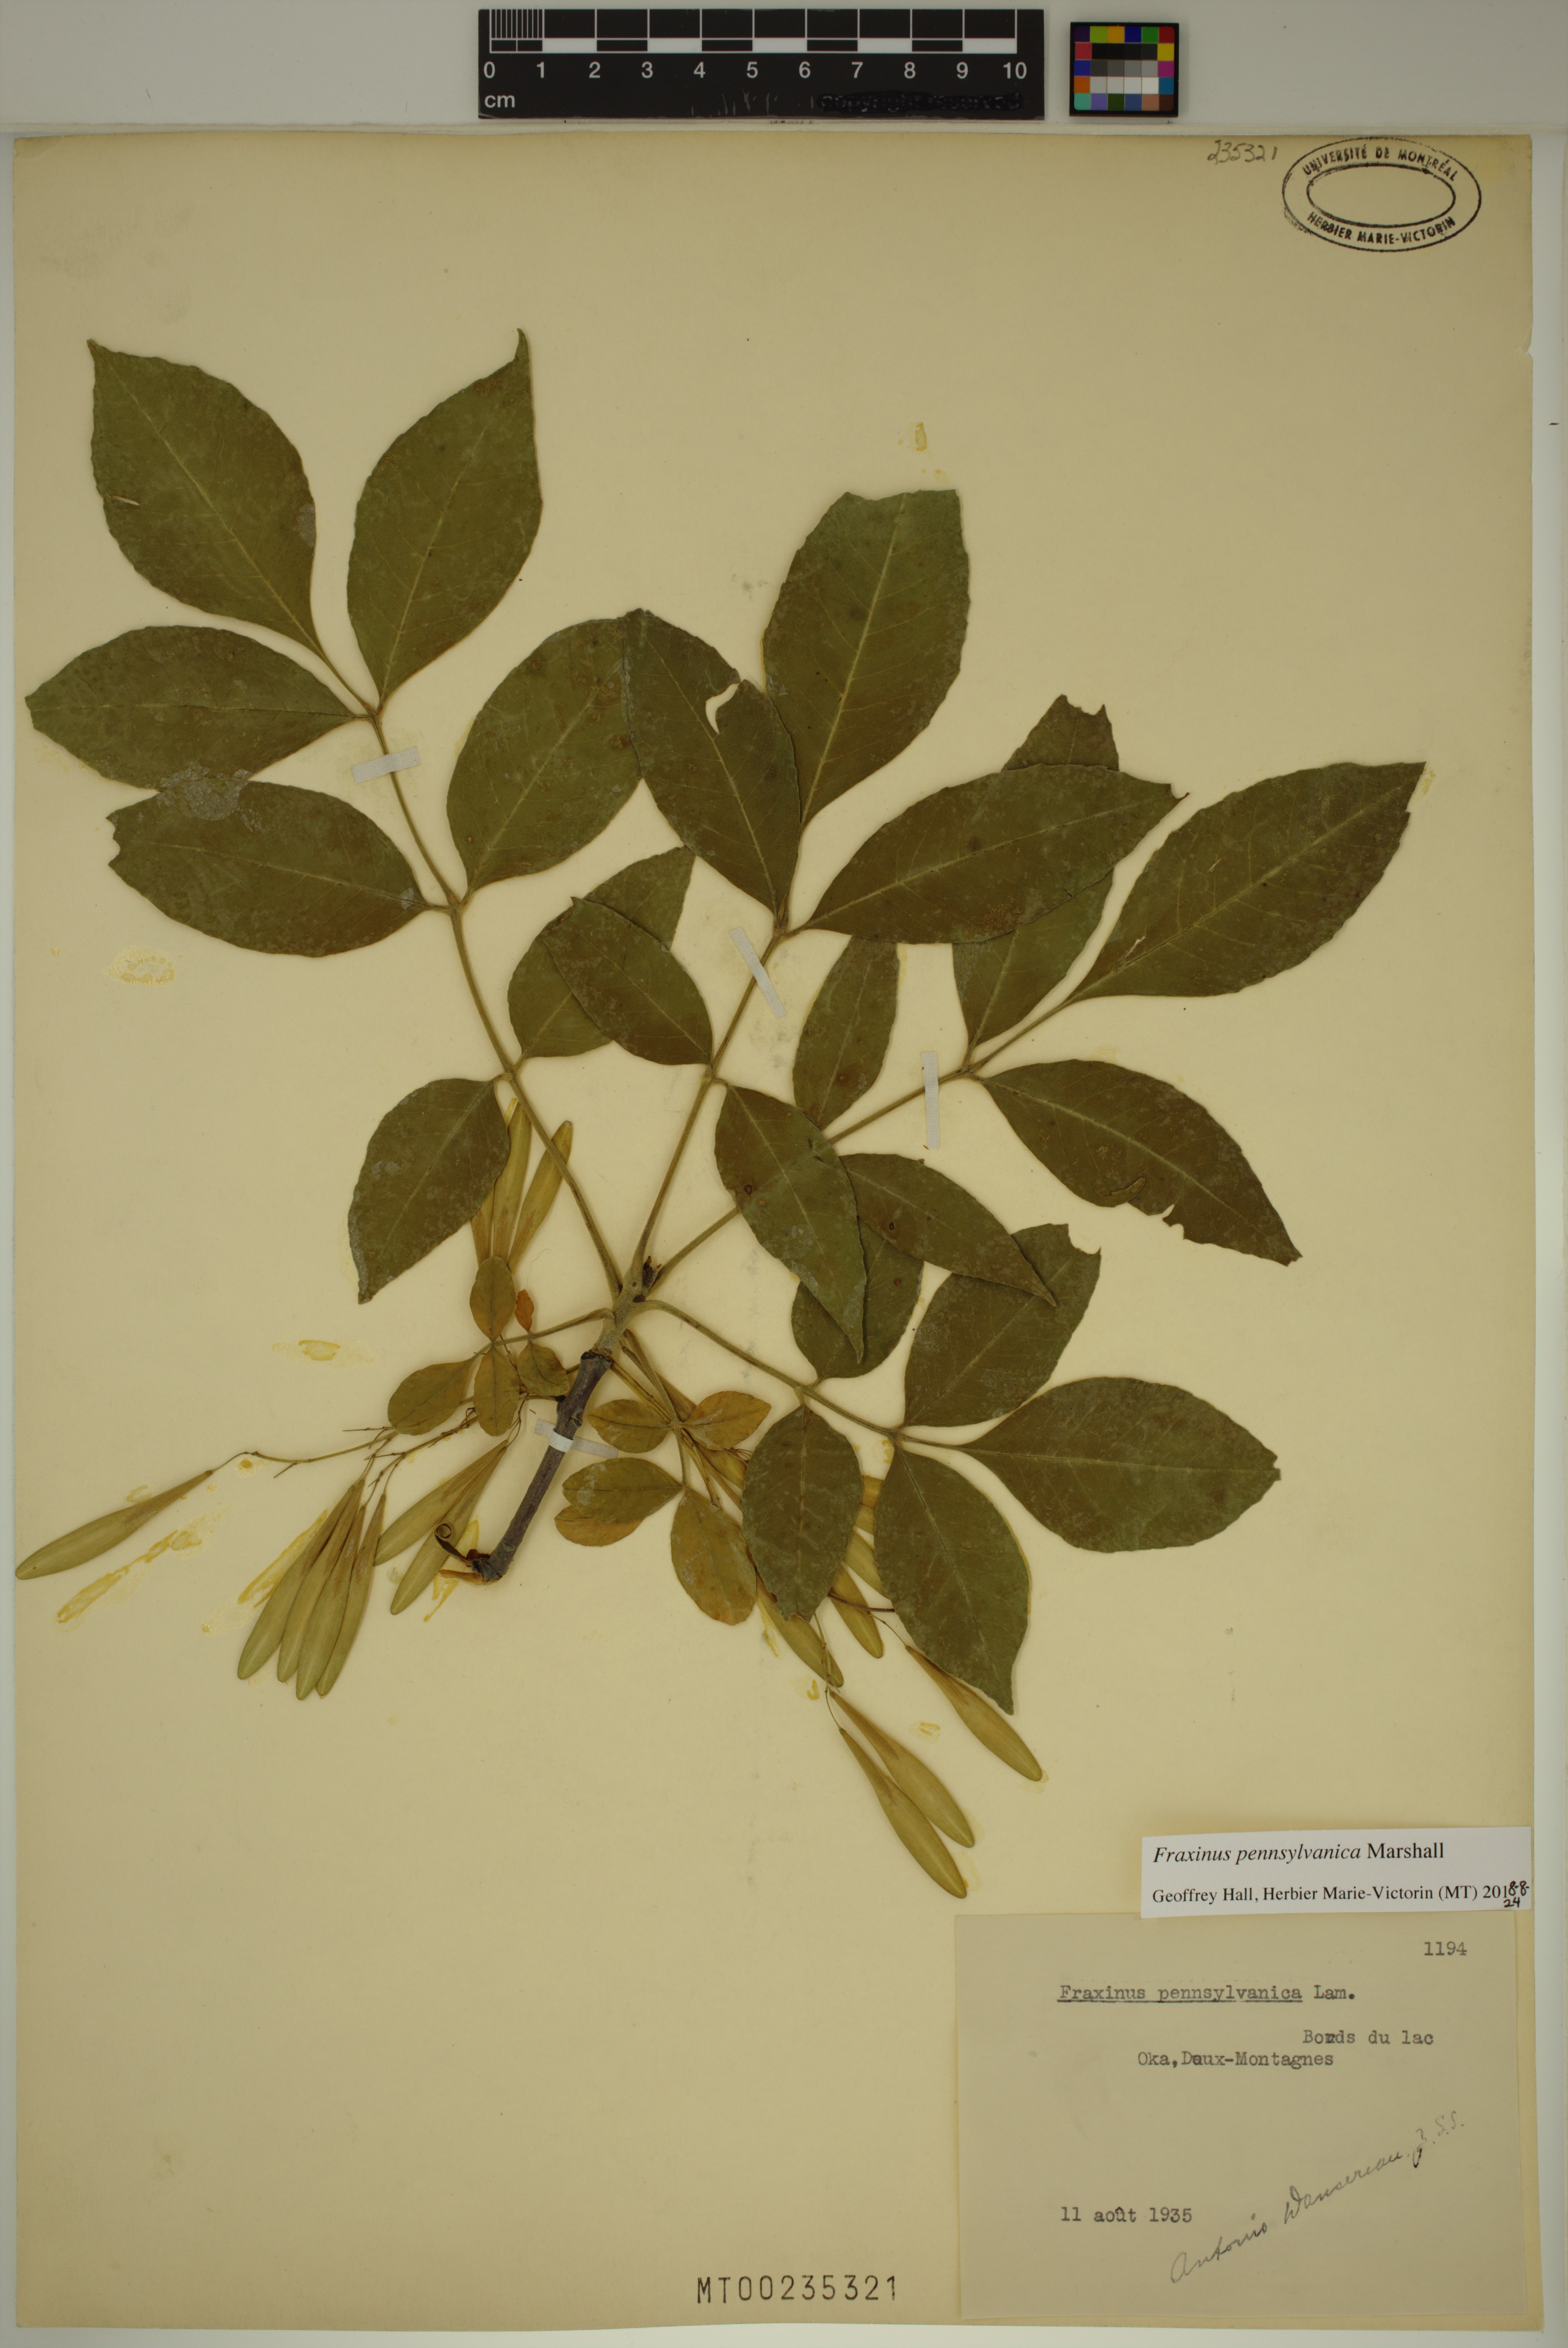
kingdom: Plantae
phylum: Tracheophyta
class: Magnoliopsida
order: Lamiales
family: Oleaceae
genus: Fraxinus
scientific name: Fraxinus pennsylvanica
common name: Green ash
